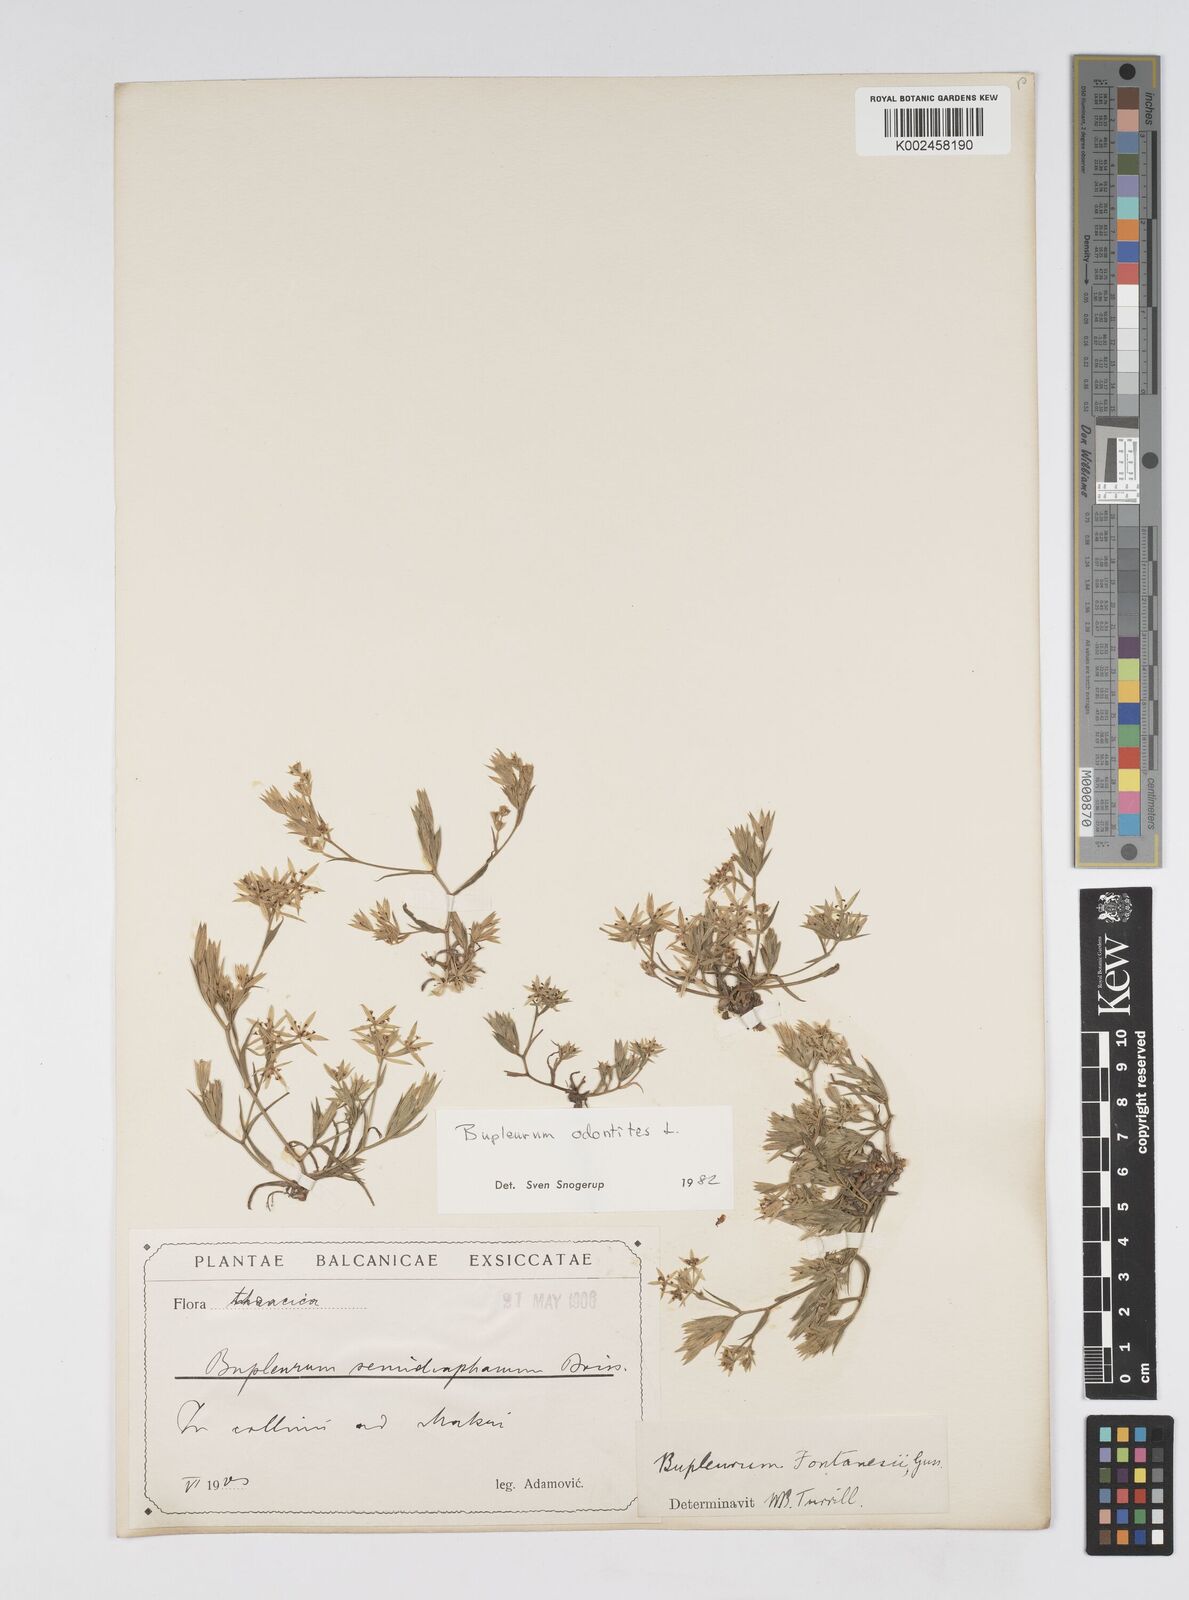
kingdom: Plantae
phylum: Tracheophyta
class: Magnoliopsida
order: Apiales
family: Apiaceae
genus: Bupleurum
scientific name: Bupleurum odontites
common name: Narrowleaf thorow wax
